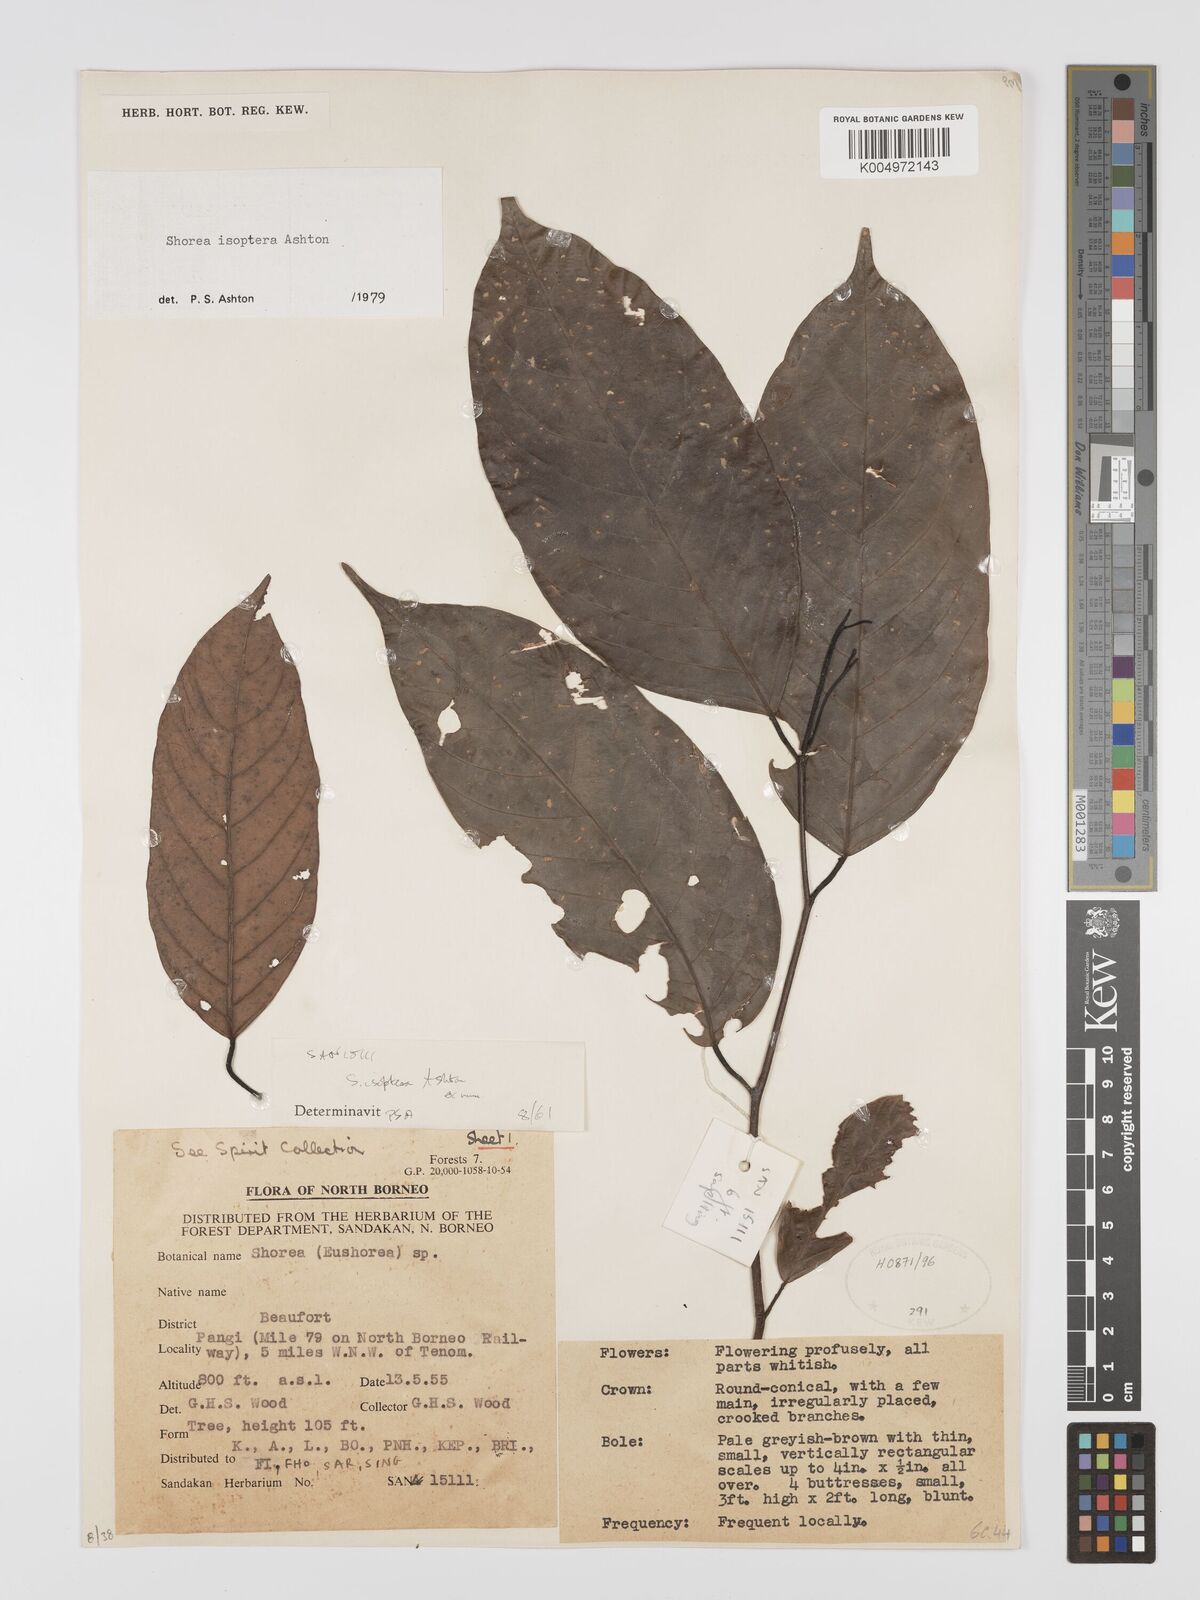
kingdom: Plantae
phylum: Tracheophyta
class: Magnoliopsida
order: Malvales
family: Dipterocarpaceae
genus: Neohopea
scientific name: Neohopea isoptera
